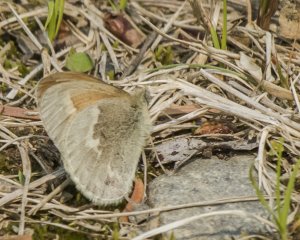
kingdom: Animalia
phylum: Arthropoda
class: Insecta
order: Lepidoptera
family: Nymphalidae
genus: Coenonympha
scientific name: Coenonympha tullia
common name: Large Heath
